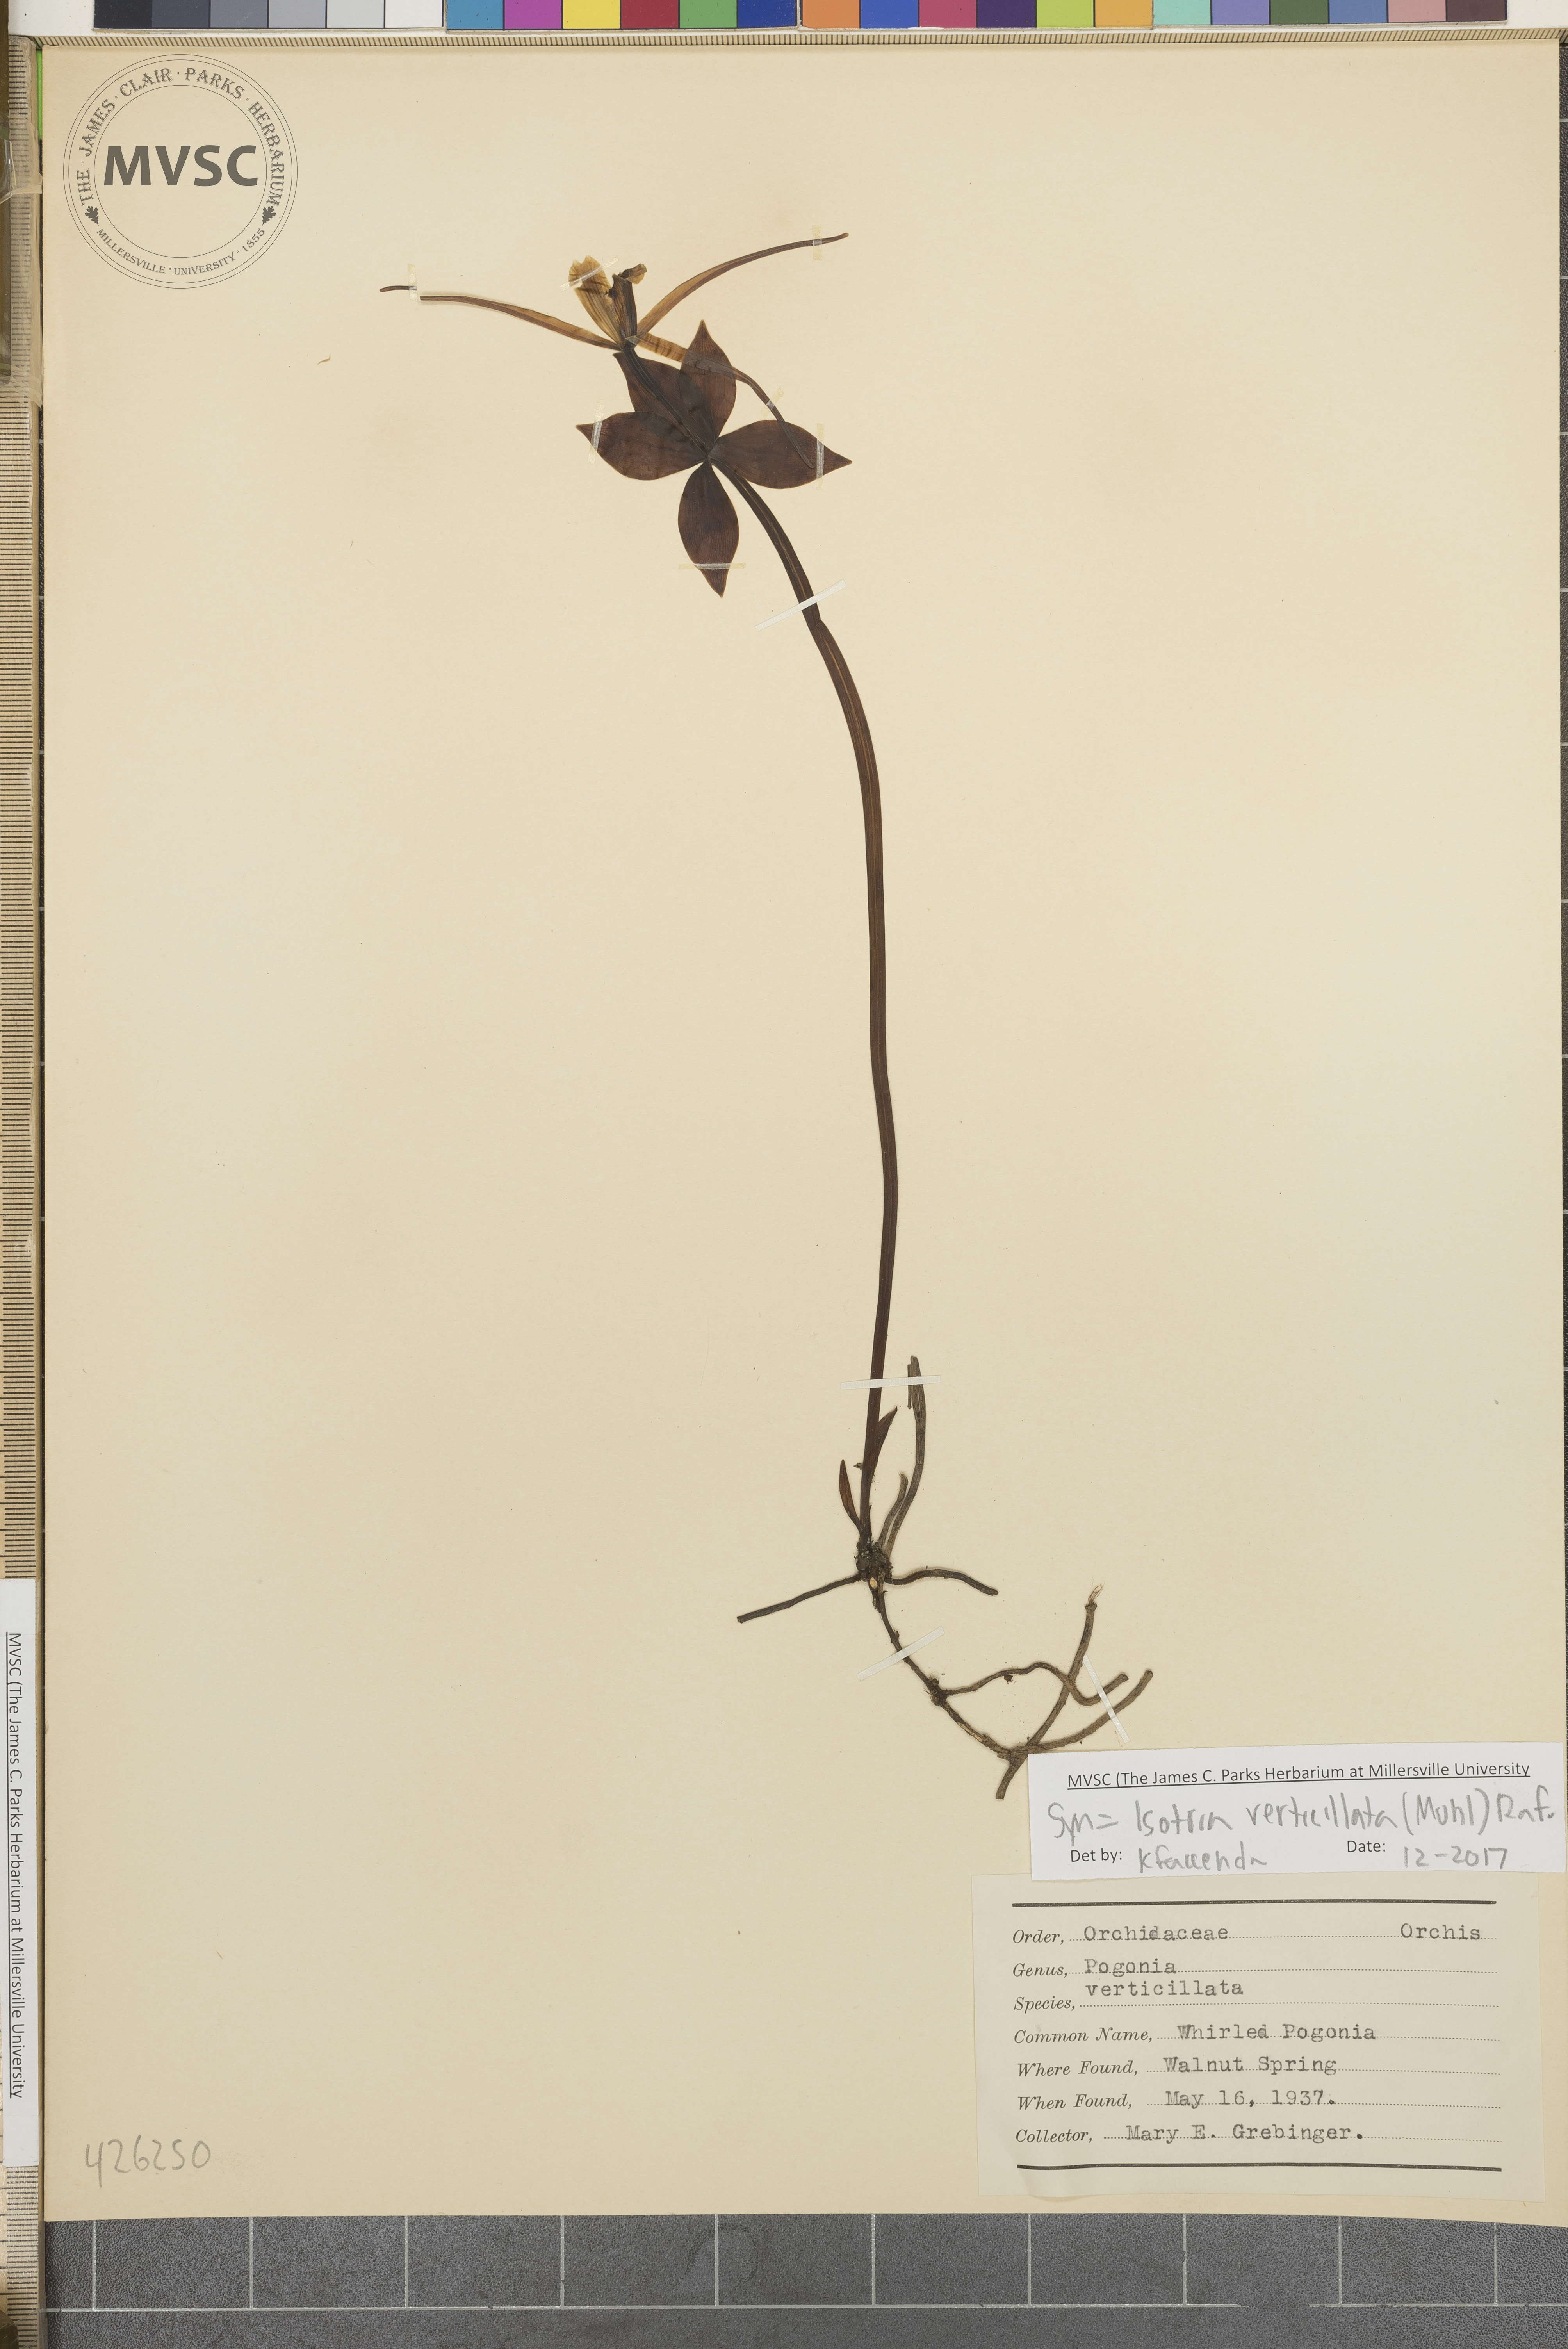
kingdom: Plantae
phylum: Tracheophyta
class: Liliopsida
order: Asparagales
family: Orchidaceae
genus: Isotria
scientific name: Isotria verticillata
